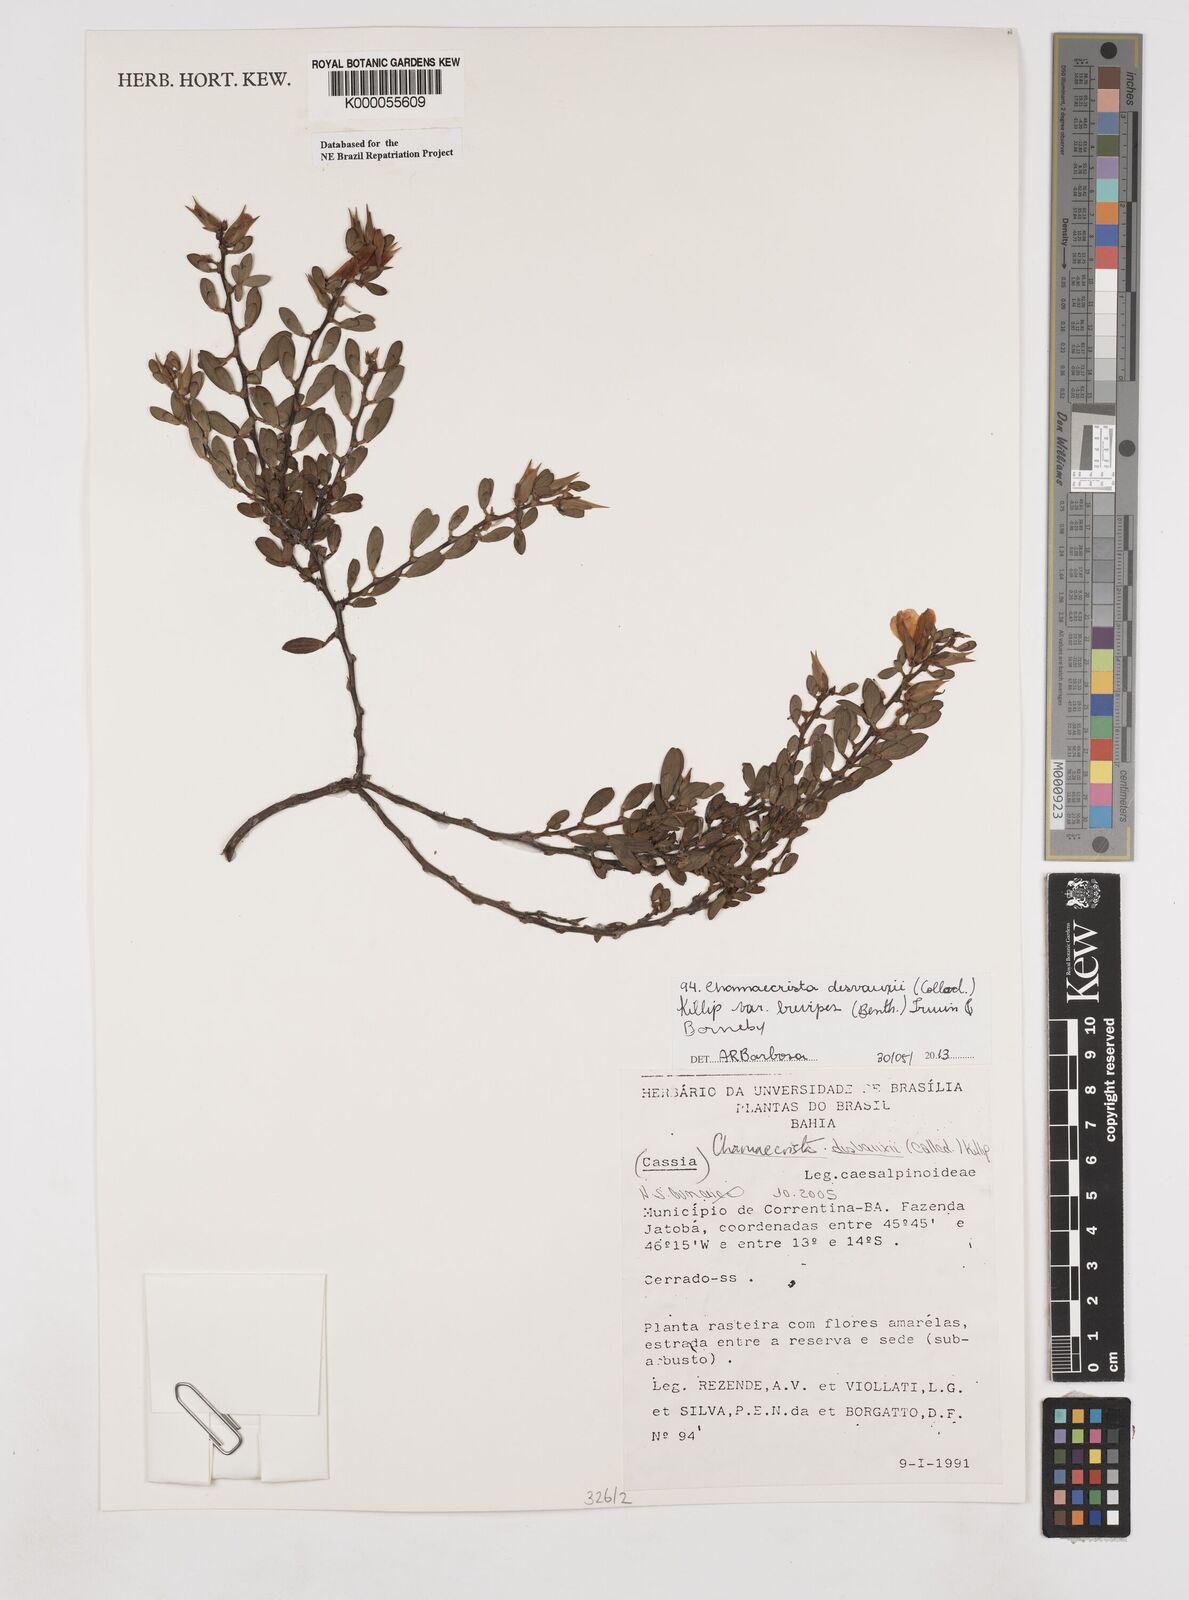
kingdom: Plantae
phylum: Tracheophyta
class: Magnoliopsida
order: Fabales
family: Fabaceae
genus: Chamaecrista
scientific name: Chamaecrista
